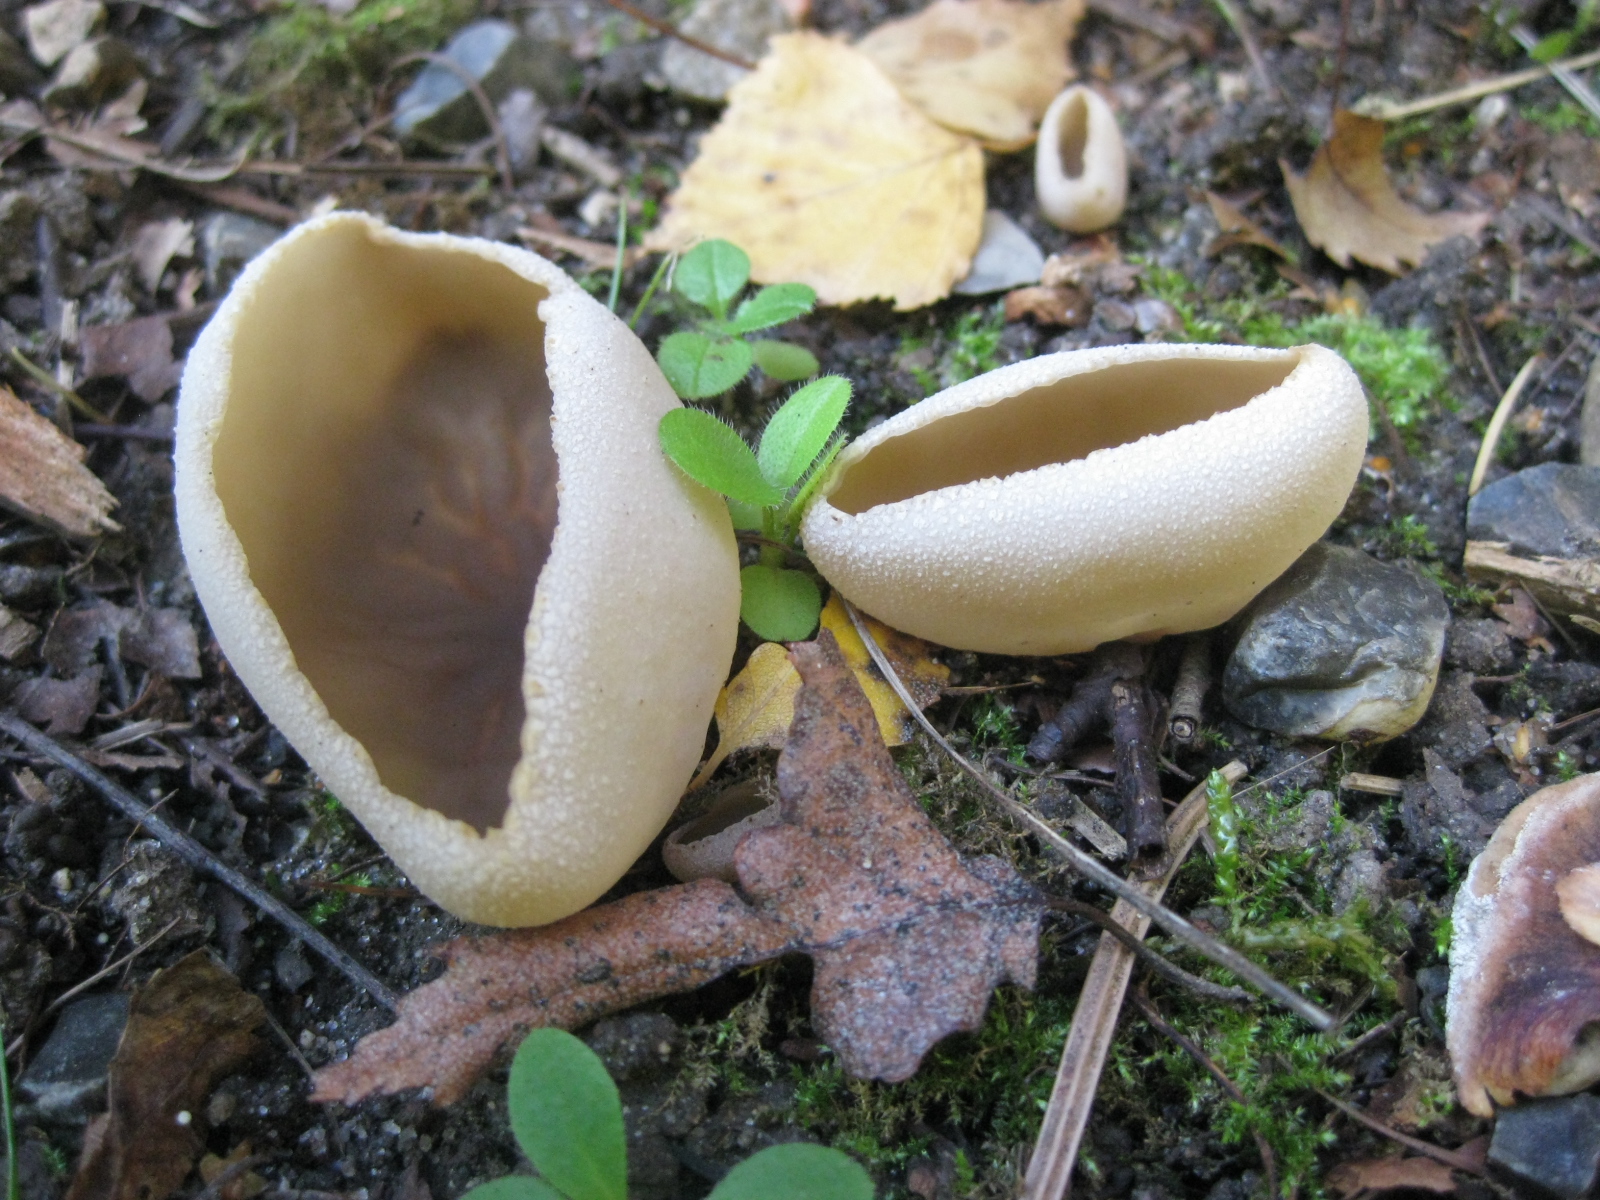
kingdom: Fungi
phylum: Ascomycota
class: Pezizomycetes
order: Pezizales
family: Pezizaceae
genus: Peziza
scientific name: Peziza
